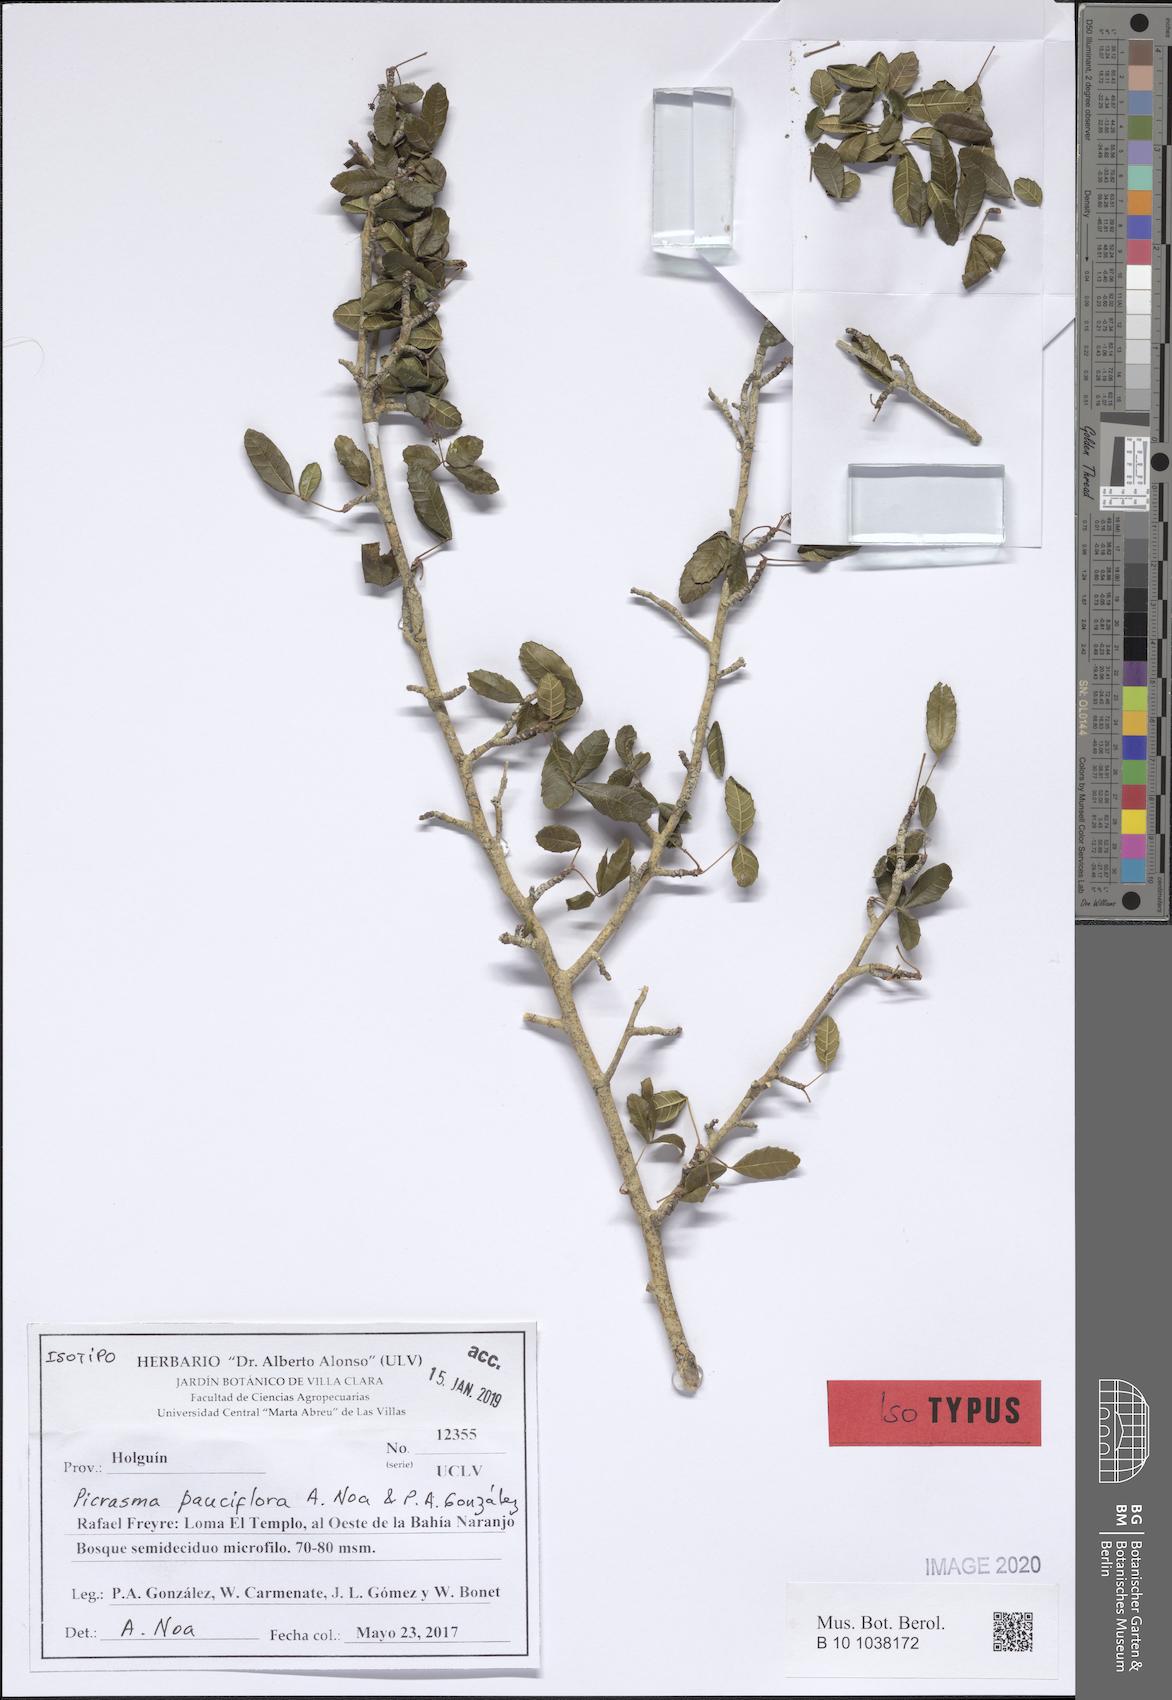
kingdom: Plantae
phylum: Tracheophyta
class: Magnoliopsida
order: Sapindales
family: Simaroubaceae
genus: Picrasma
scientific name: Picrasma pauciflora
